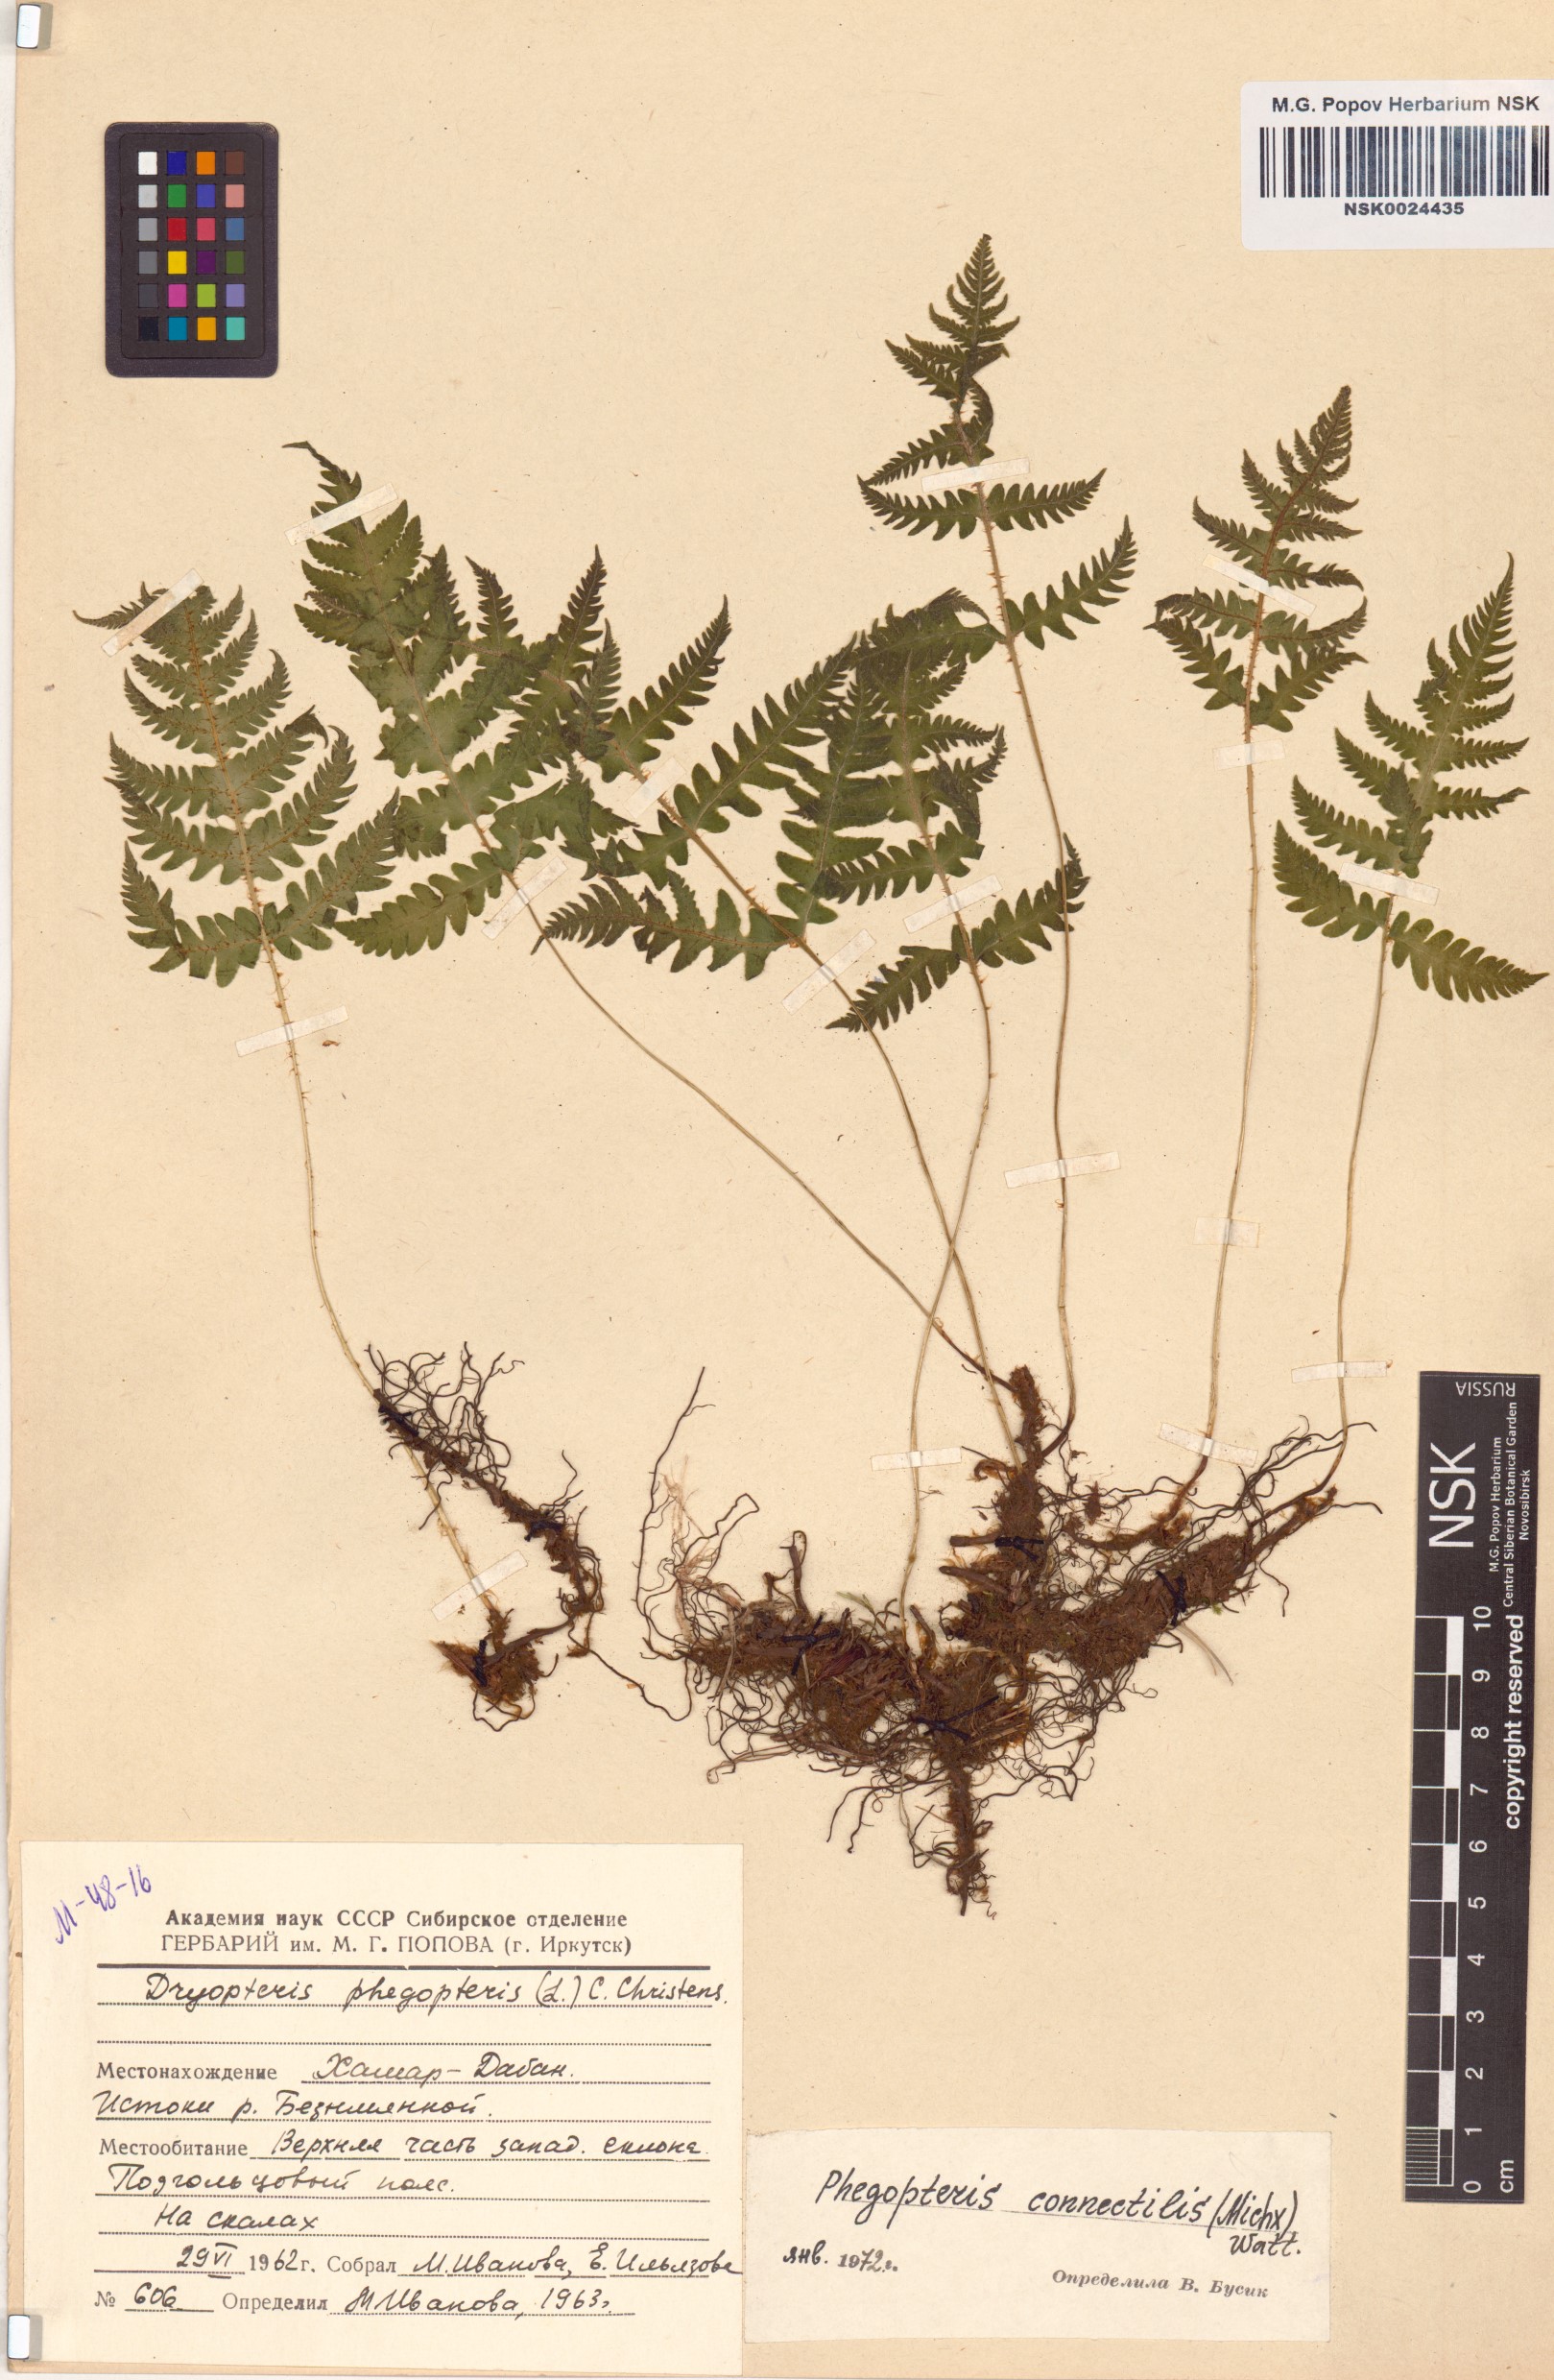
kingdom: Plantae
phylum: Tracheophyta
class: Polypodiopsida
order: Polypodiales
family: Thelypteridaceae
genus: Phegopteris
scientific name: Phegopteris connectilis
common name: Beech fern
